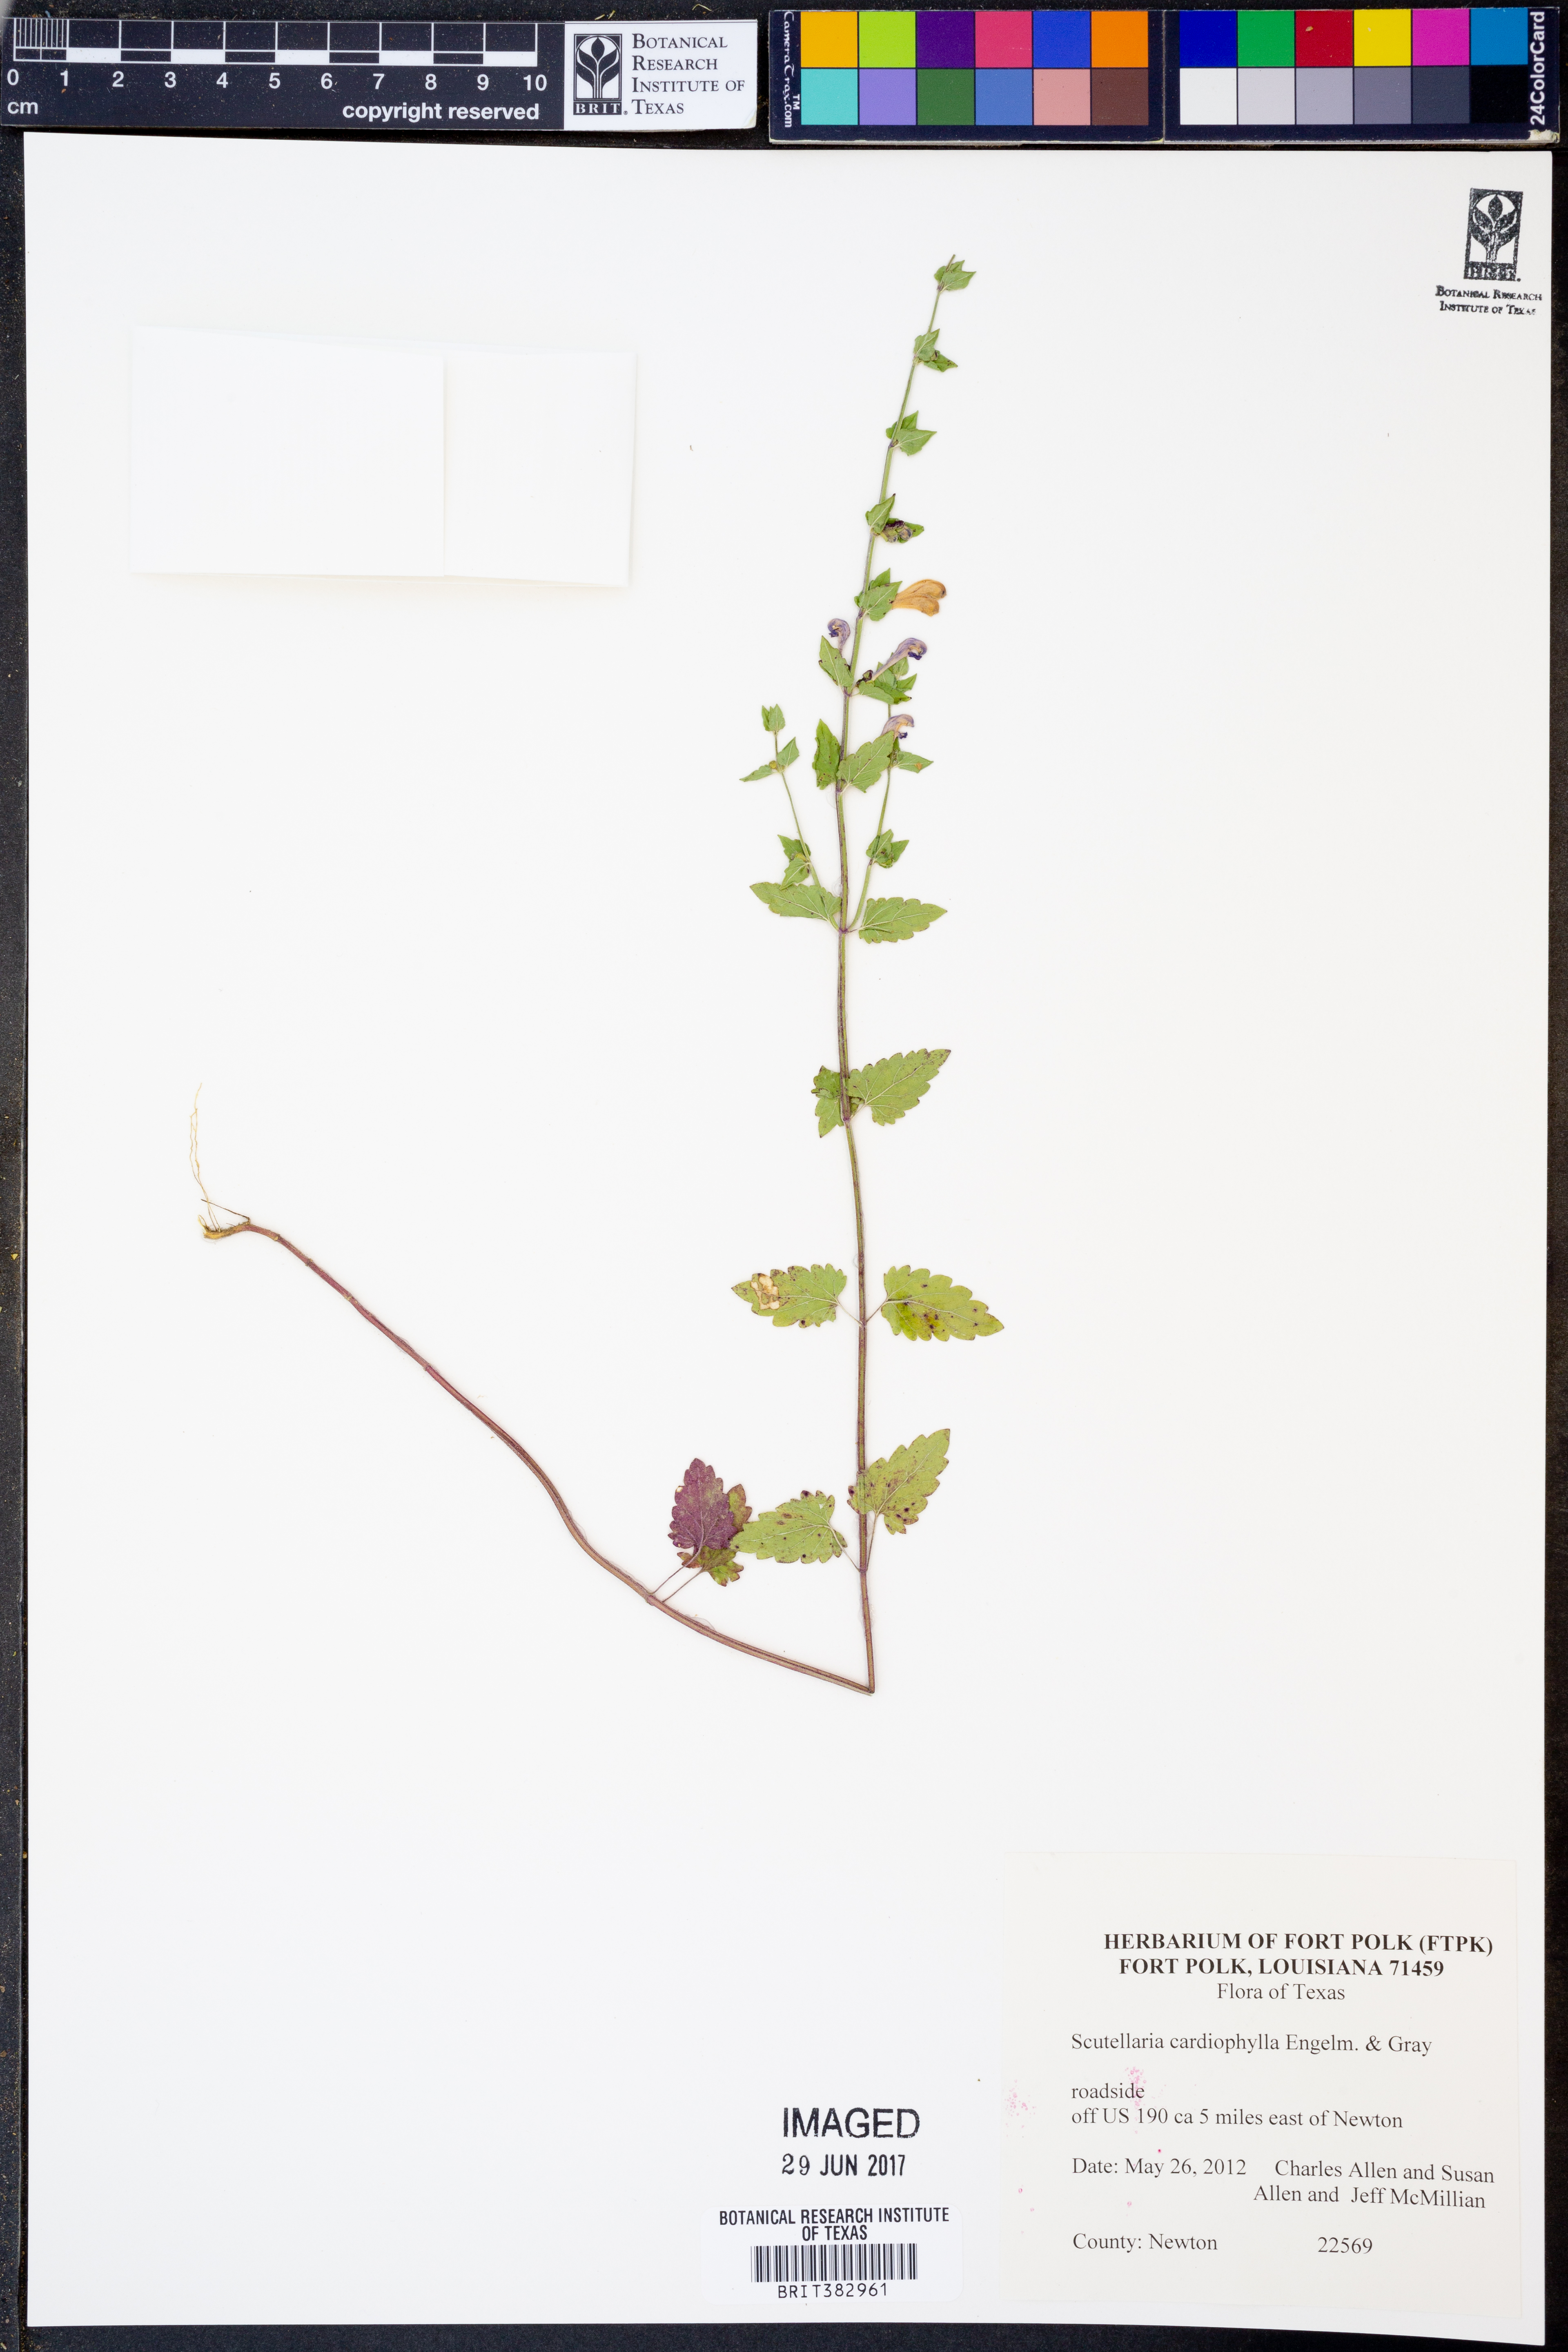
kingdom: Plantae
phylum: Tracheophyta
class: Magnoliopsida
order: Lamiales
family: Lamiaceae
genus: Scutellaria
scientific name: Scutellaria cardiophylla
